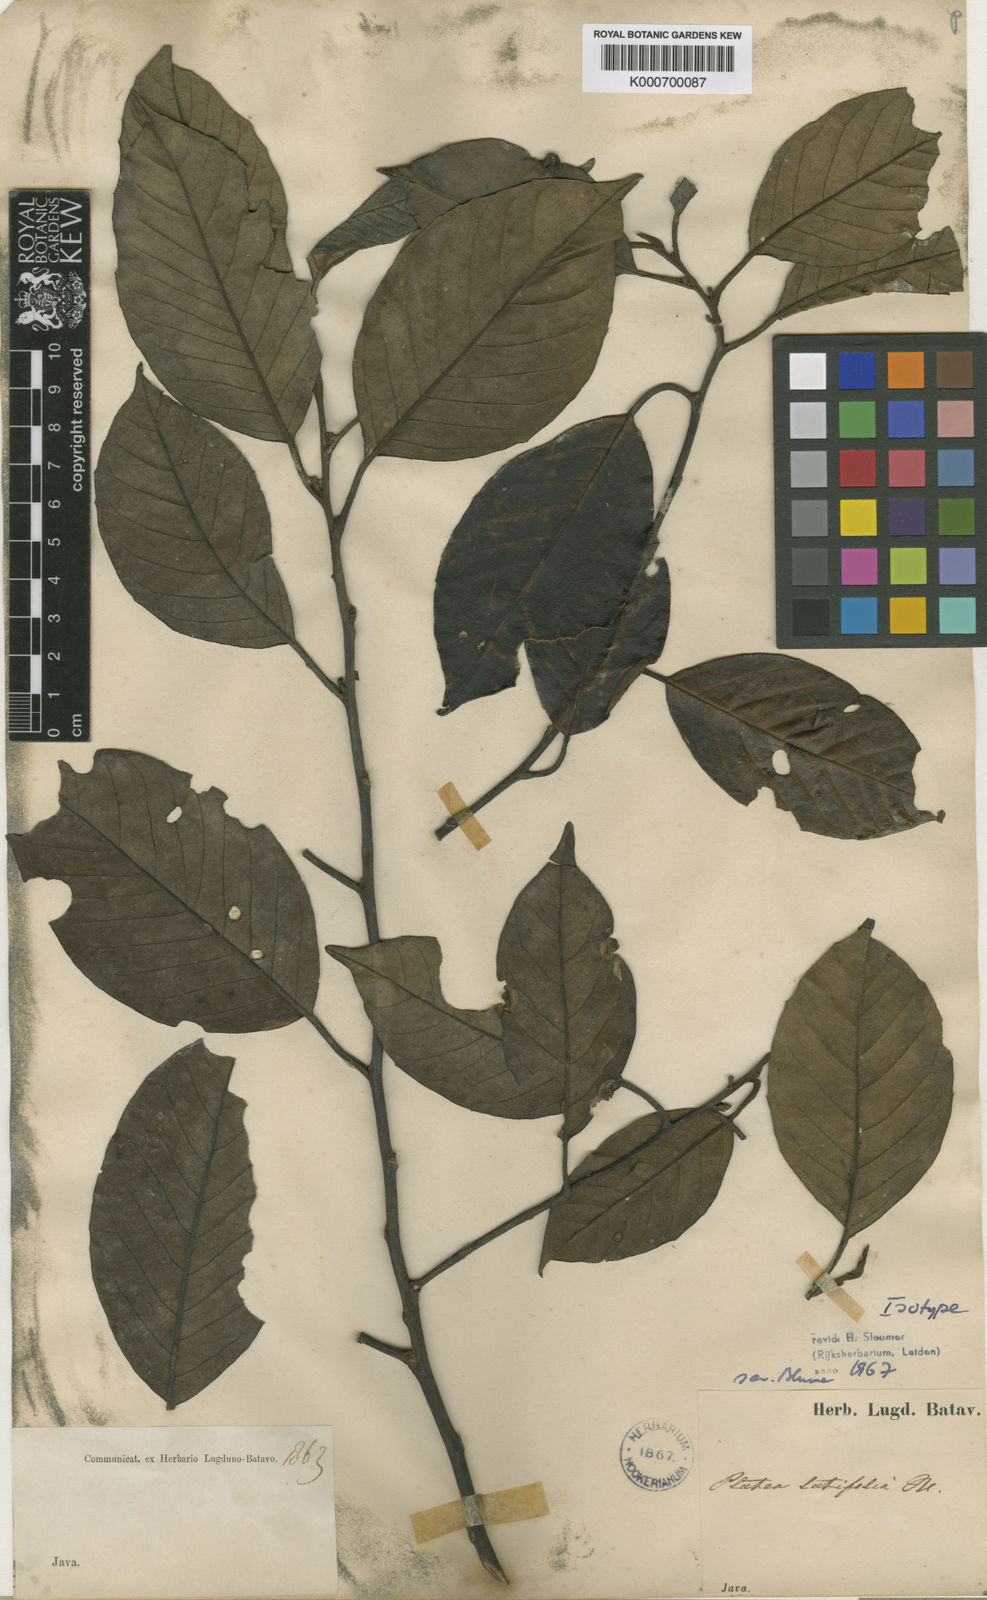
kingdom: Plantae
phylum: Tracheophyta
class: Magnoliopsida
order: Metteniusales
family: Metteniusaceae
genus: Platea
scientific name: Platea latifolia
